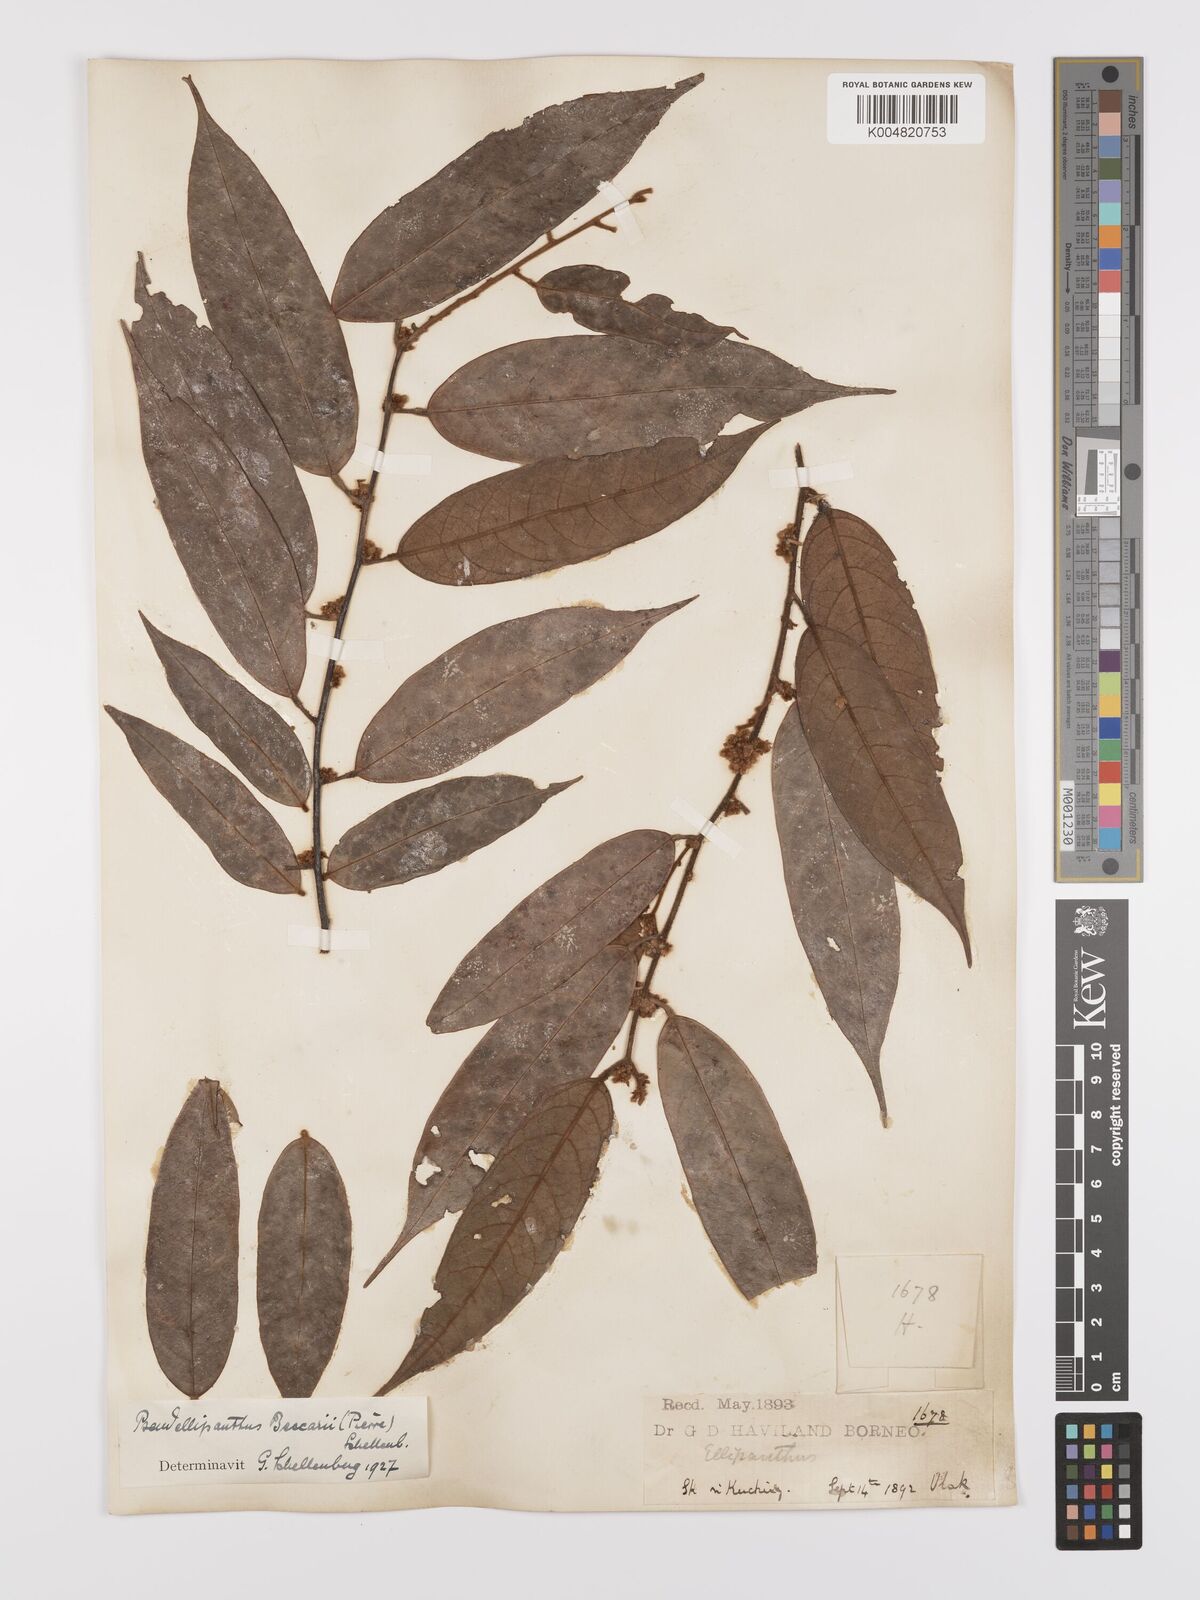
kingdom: Plantae
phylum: Tracheophyta
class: Magnoliopsida
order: Oxalidales
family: Connaraceae
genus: Ellipanthus
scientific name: Ellipanthus beccarii
